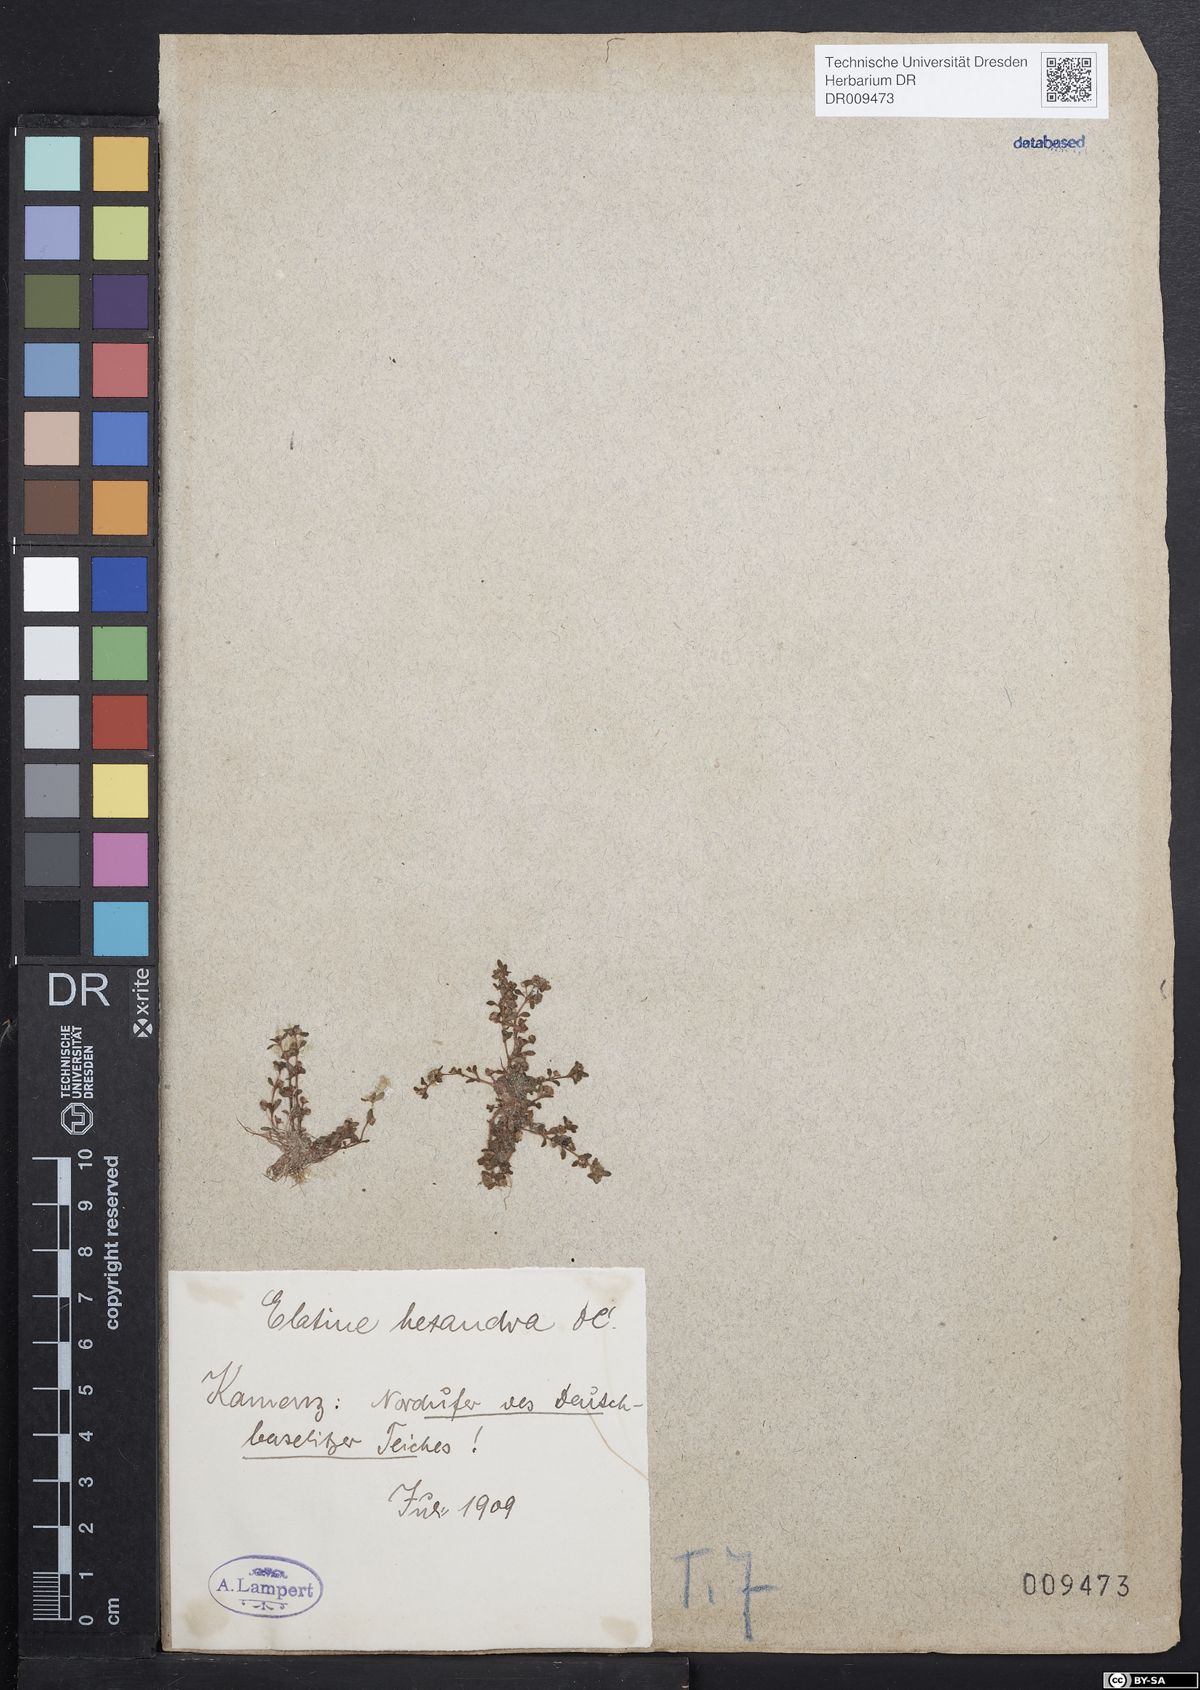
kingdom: Plantae
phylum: Tracheophyta
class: Magnoliopsida
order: Malpighiales
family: Elatinaceae
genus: Elatine
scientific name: Elatine hexandra
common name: Six-stamened waterwort
